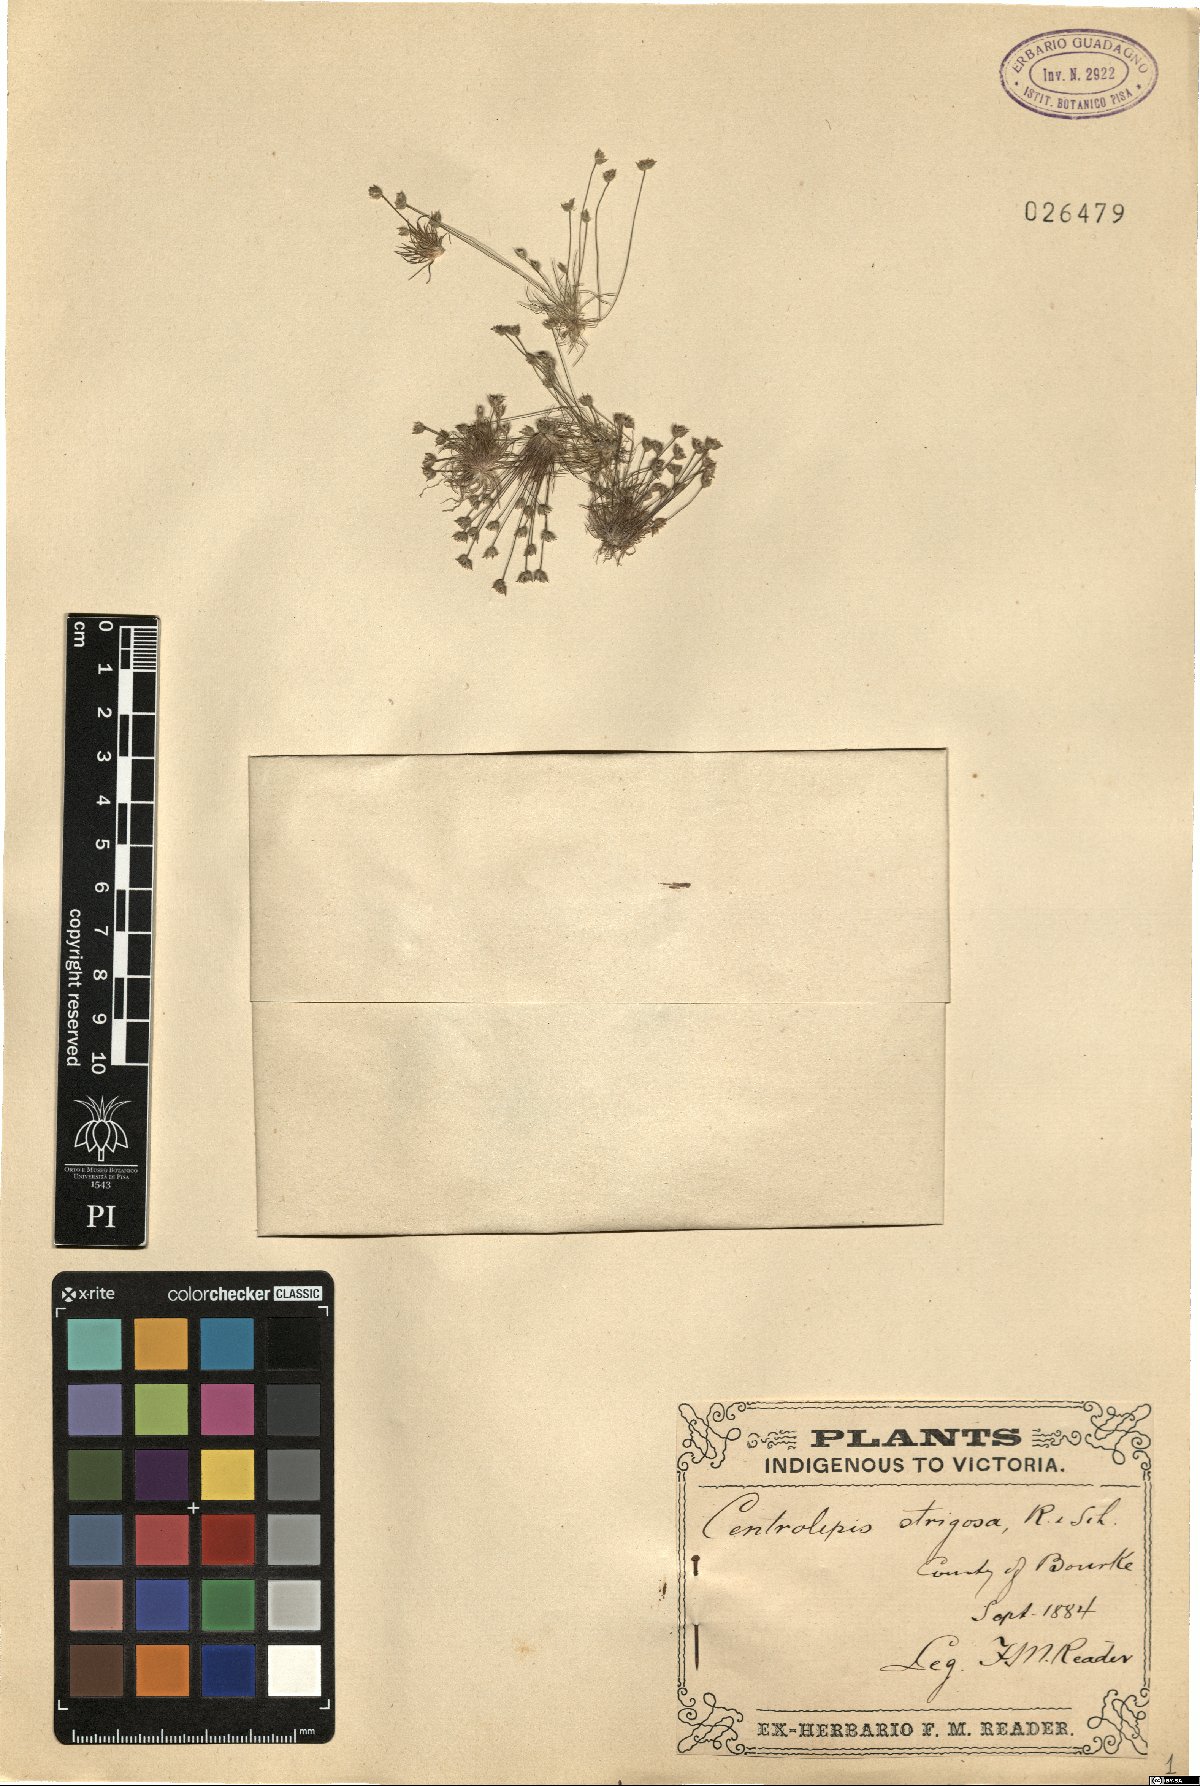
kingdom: Plantae
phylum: Tracheophyta
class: Liliopsida
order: Poales
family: Restionaceae
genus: Centrolepis
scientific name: Centrolepis strigosa
